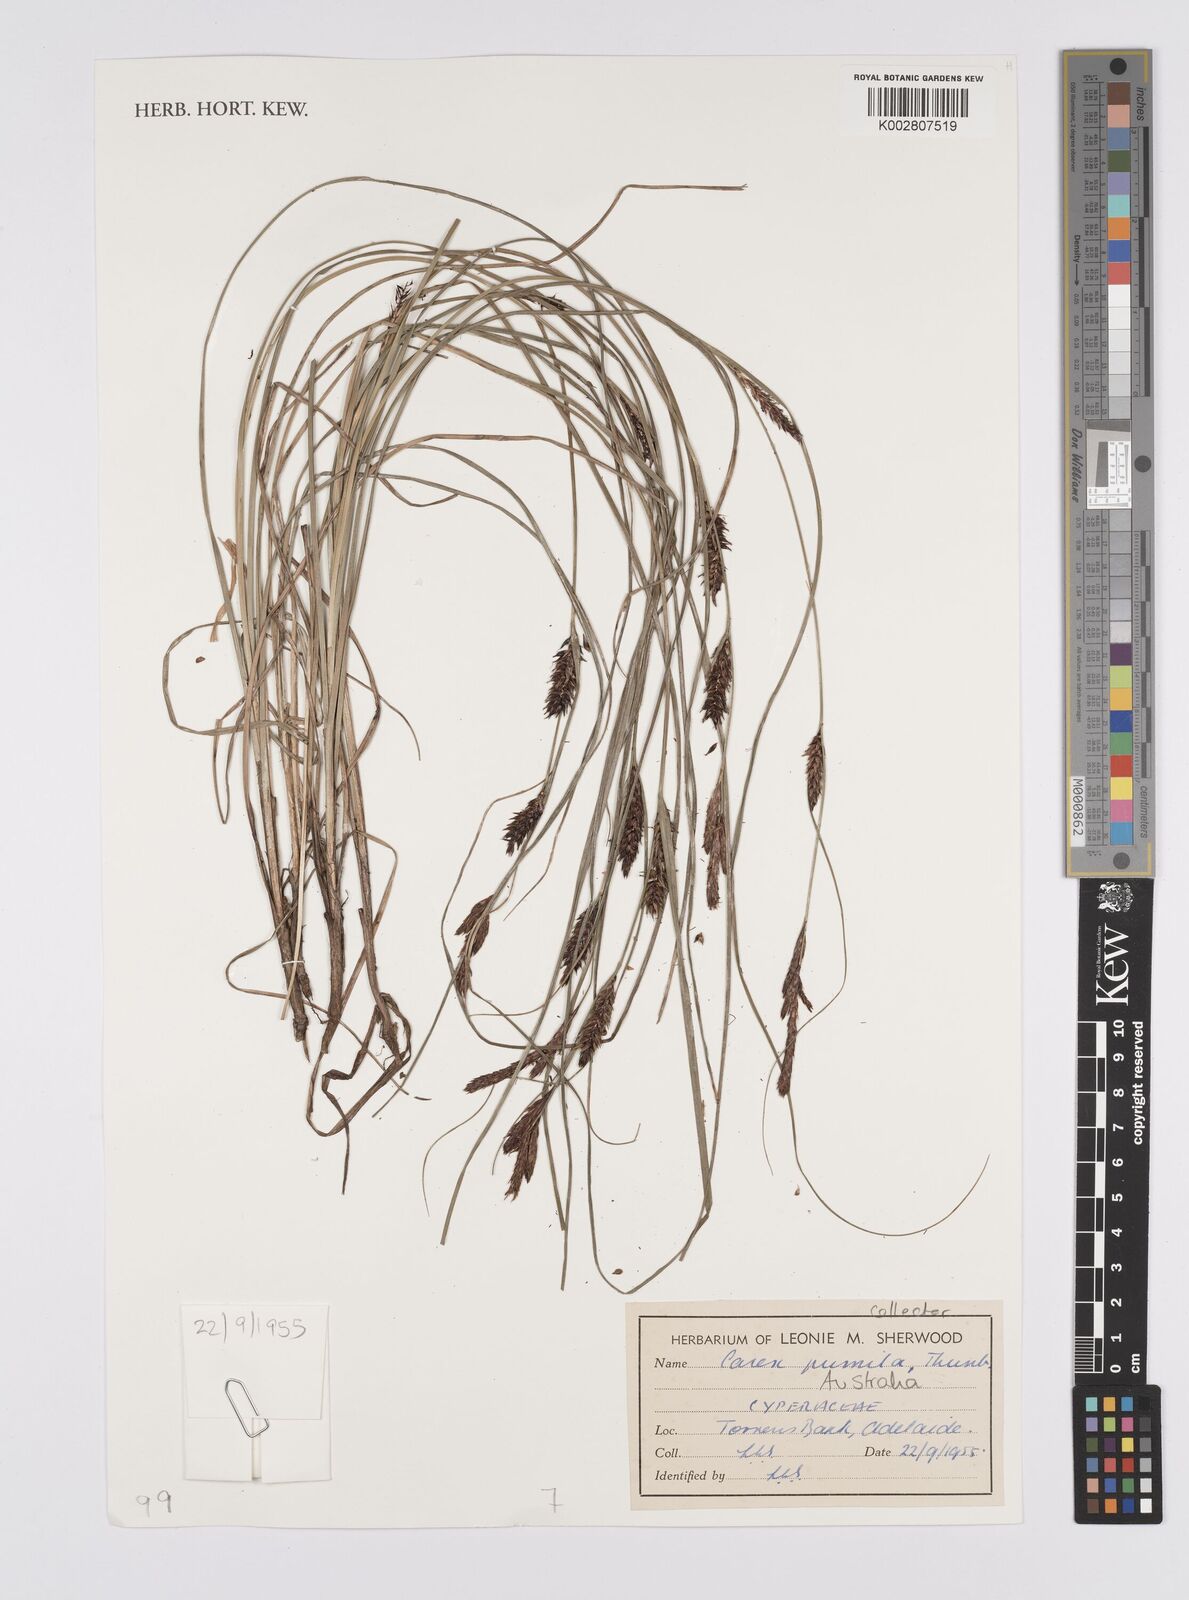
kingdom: Plantae
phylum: Tracheophyta
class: Liliopsida
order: Poales
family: Cyperaceae
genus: Carex
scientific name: Carex pumila
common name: Dwarf sedge
